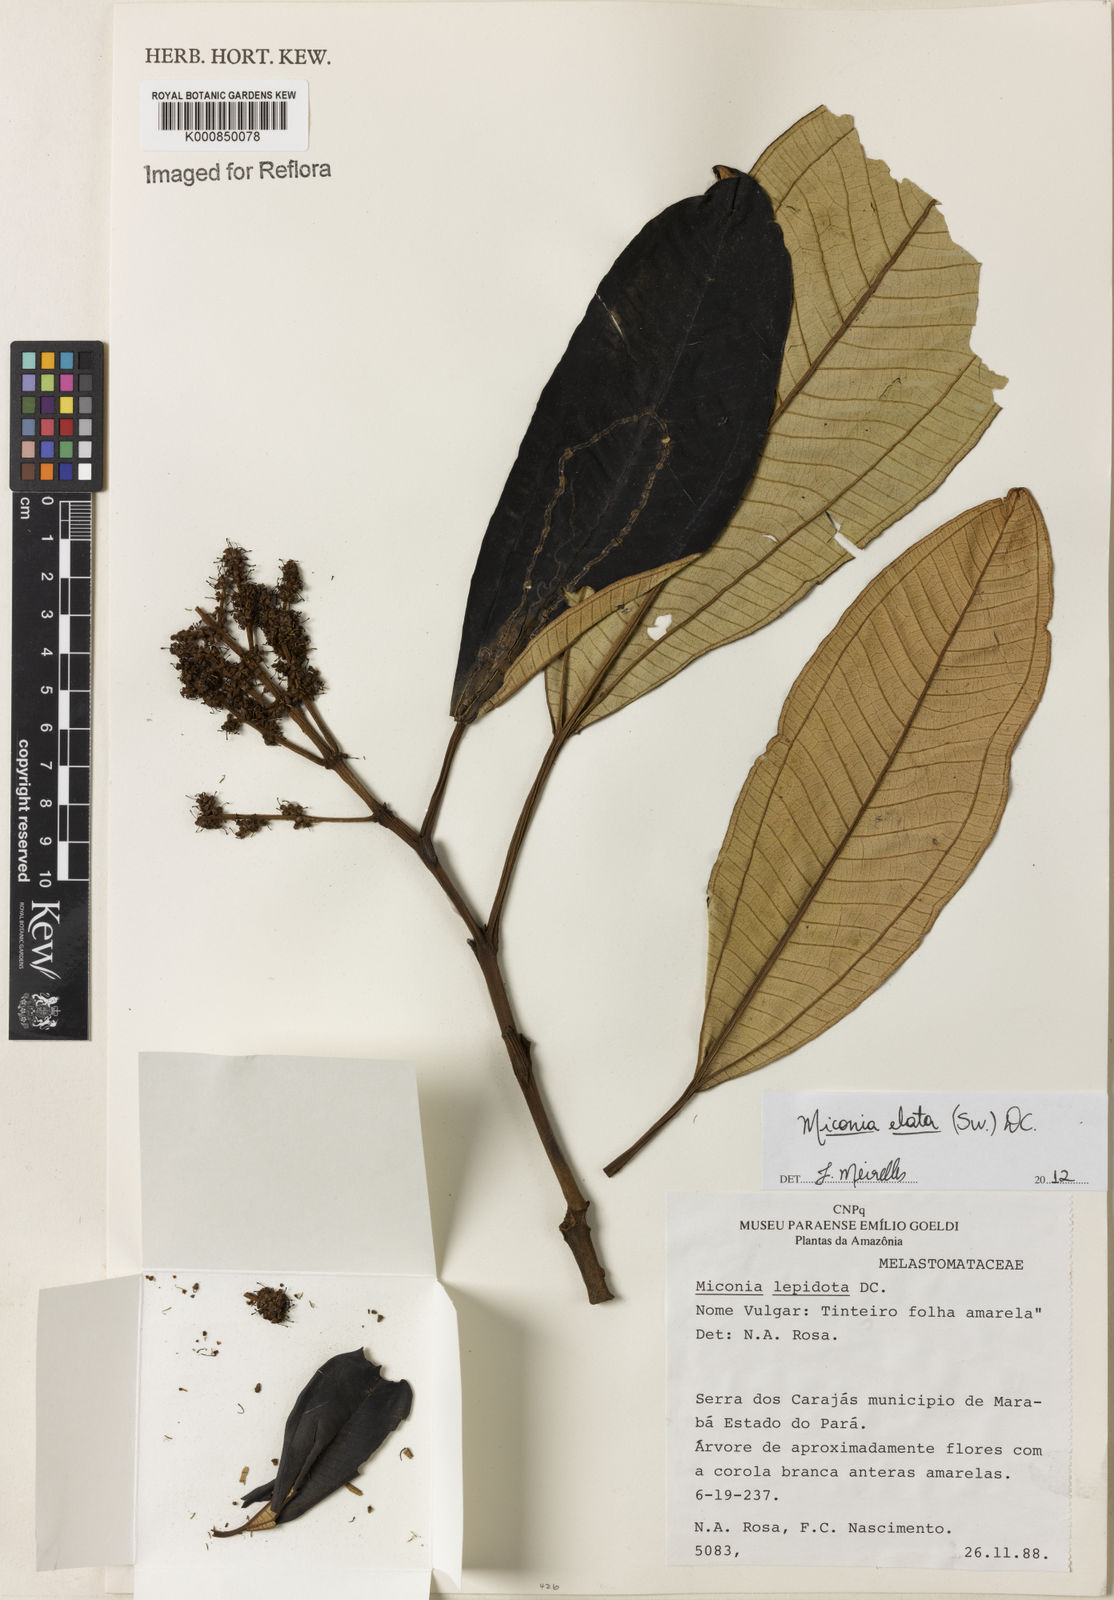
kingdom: Plantae
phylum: Tracheophyta
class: Magnoliopsida
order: Myrtales
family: Melastomataceae
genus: Miconia
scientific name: Miconia elata
